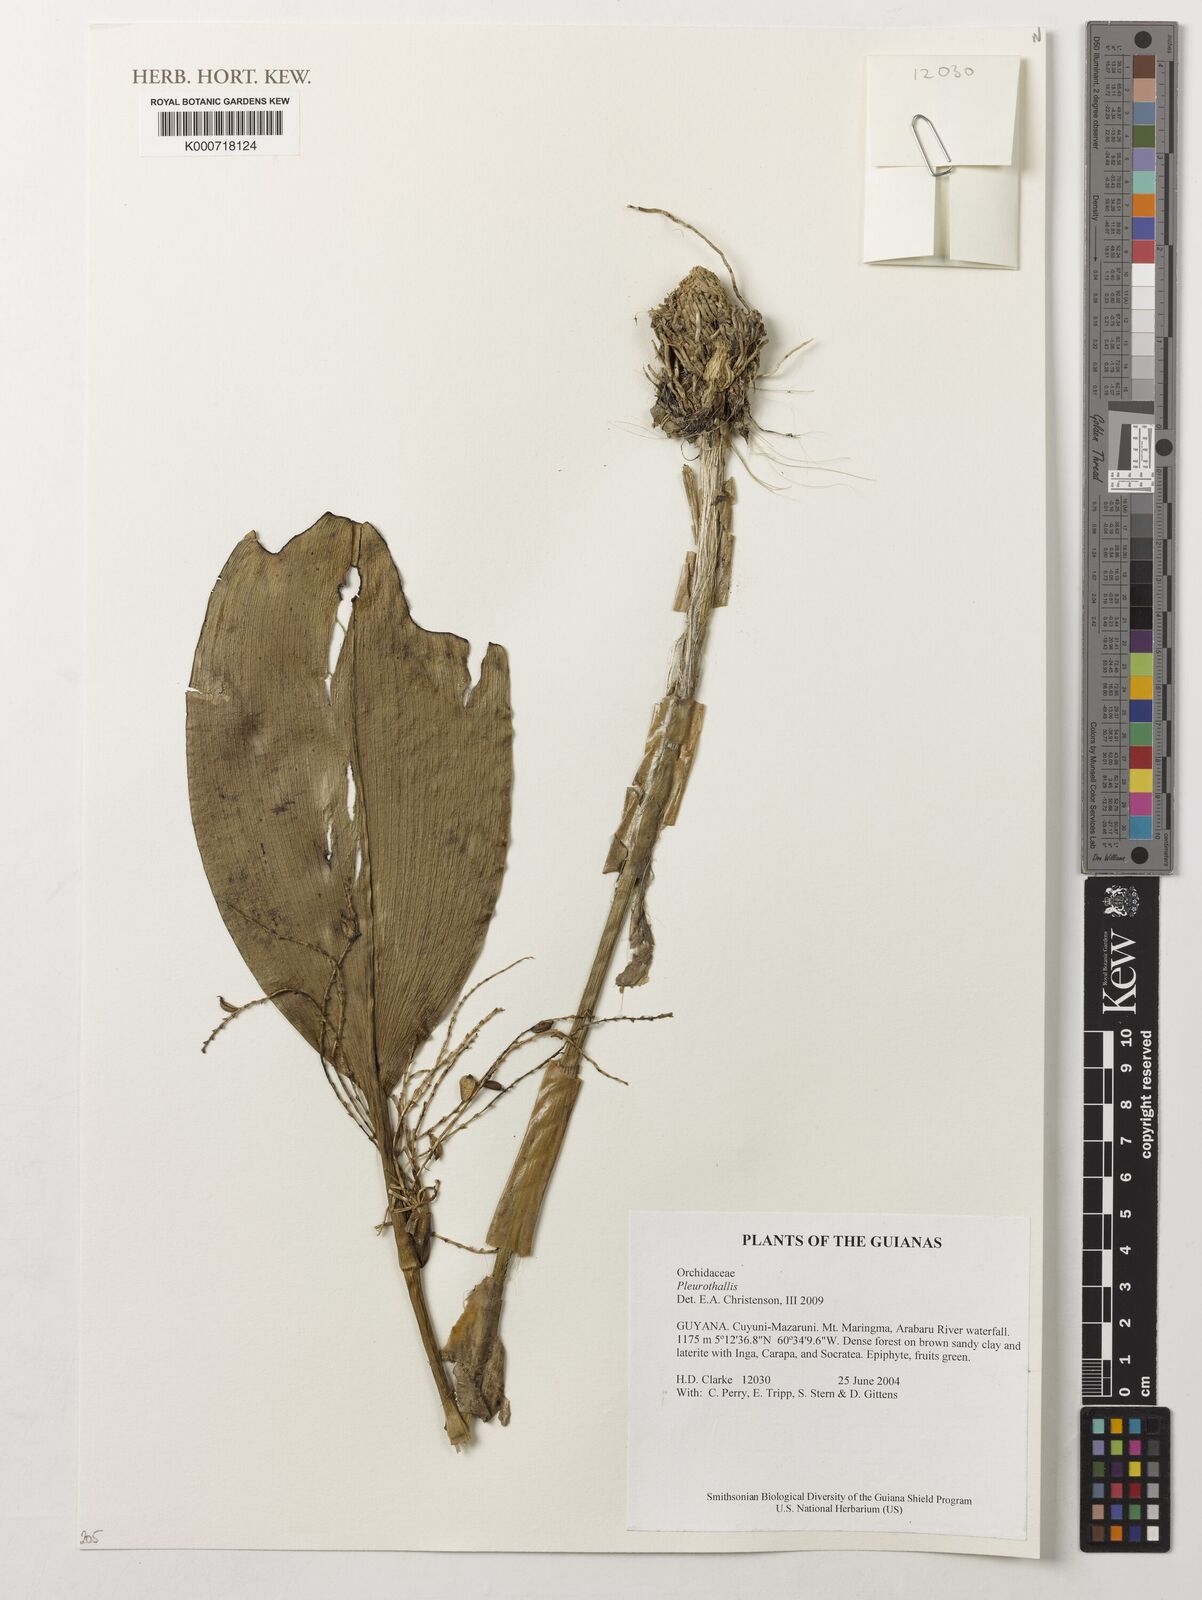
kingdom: Plantae
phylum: Tracheophyta
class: Liliopsida
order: Asparagales
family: Orchidaceae
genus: Pleurothallis
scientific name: Pleurothallis
